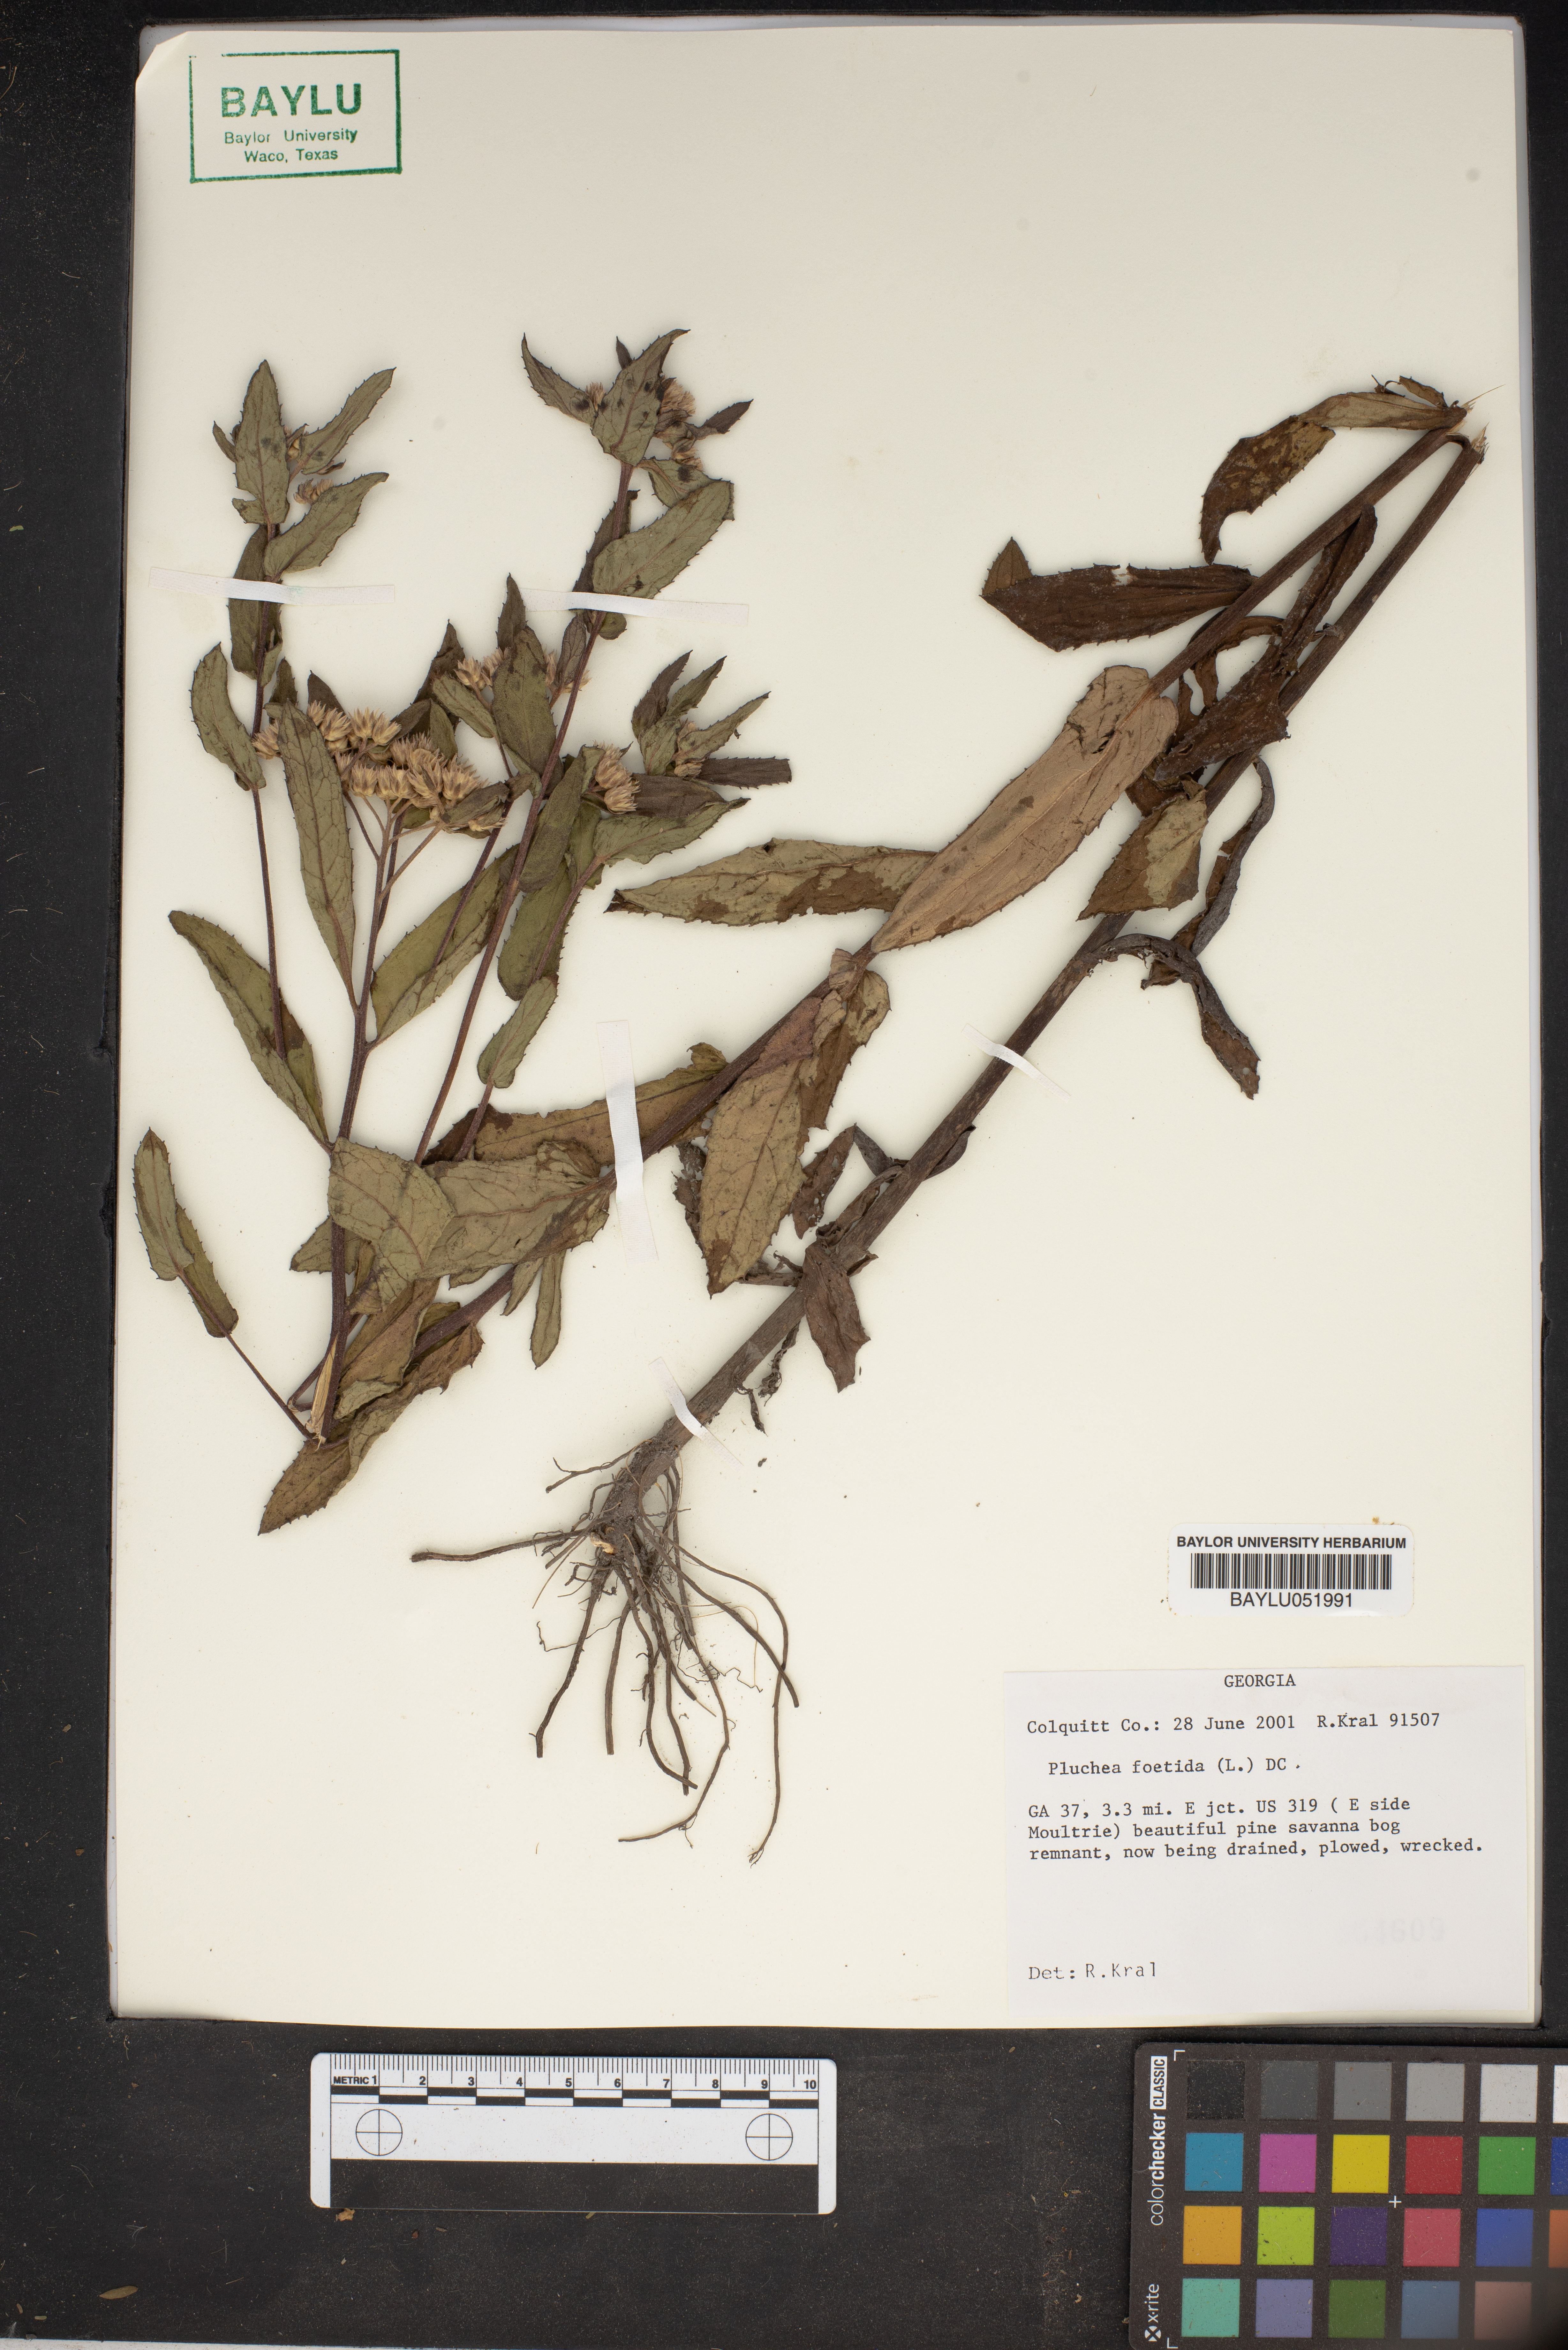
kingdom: Plantae
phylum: Tracheophyta
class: Magnoliopsida
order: Asterales
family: Asteraceae
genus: Pluchea
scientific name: Pluchea foetida
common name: Stinking camphorweed
